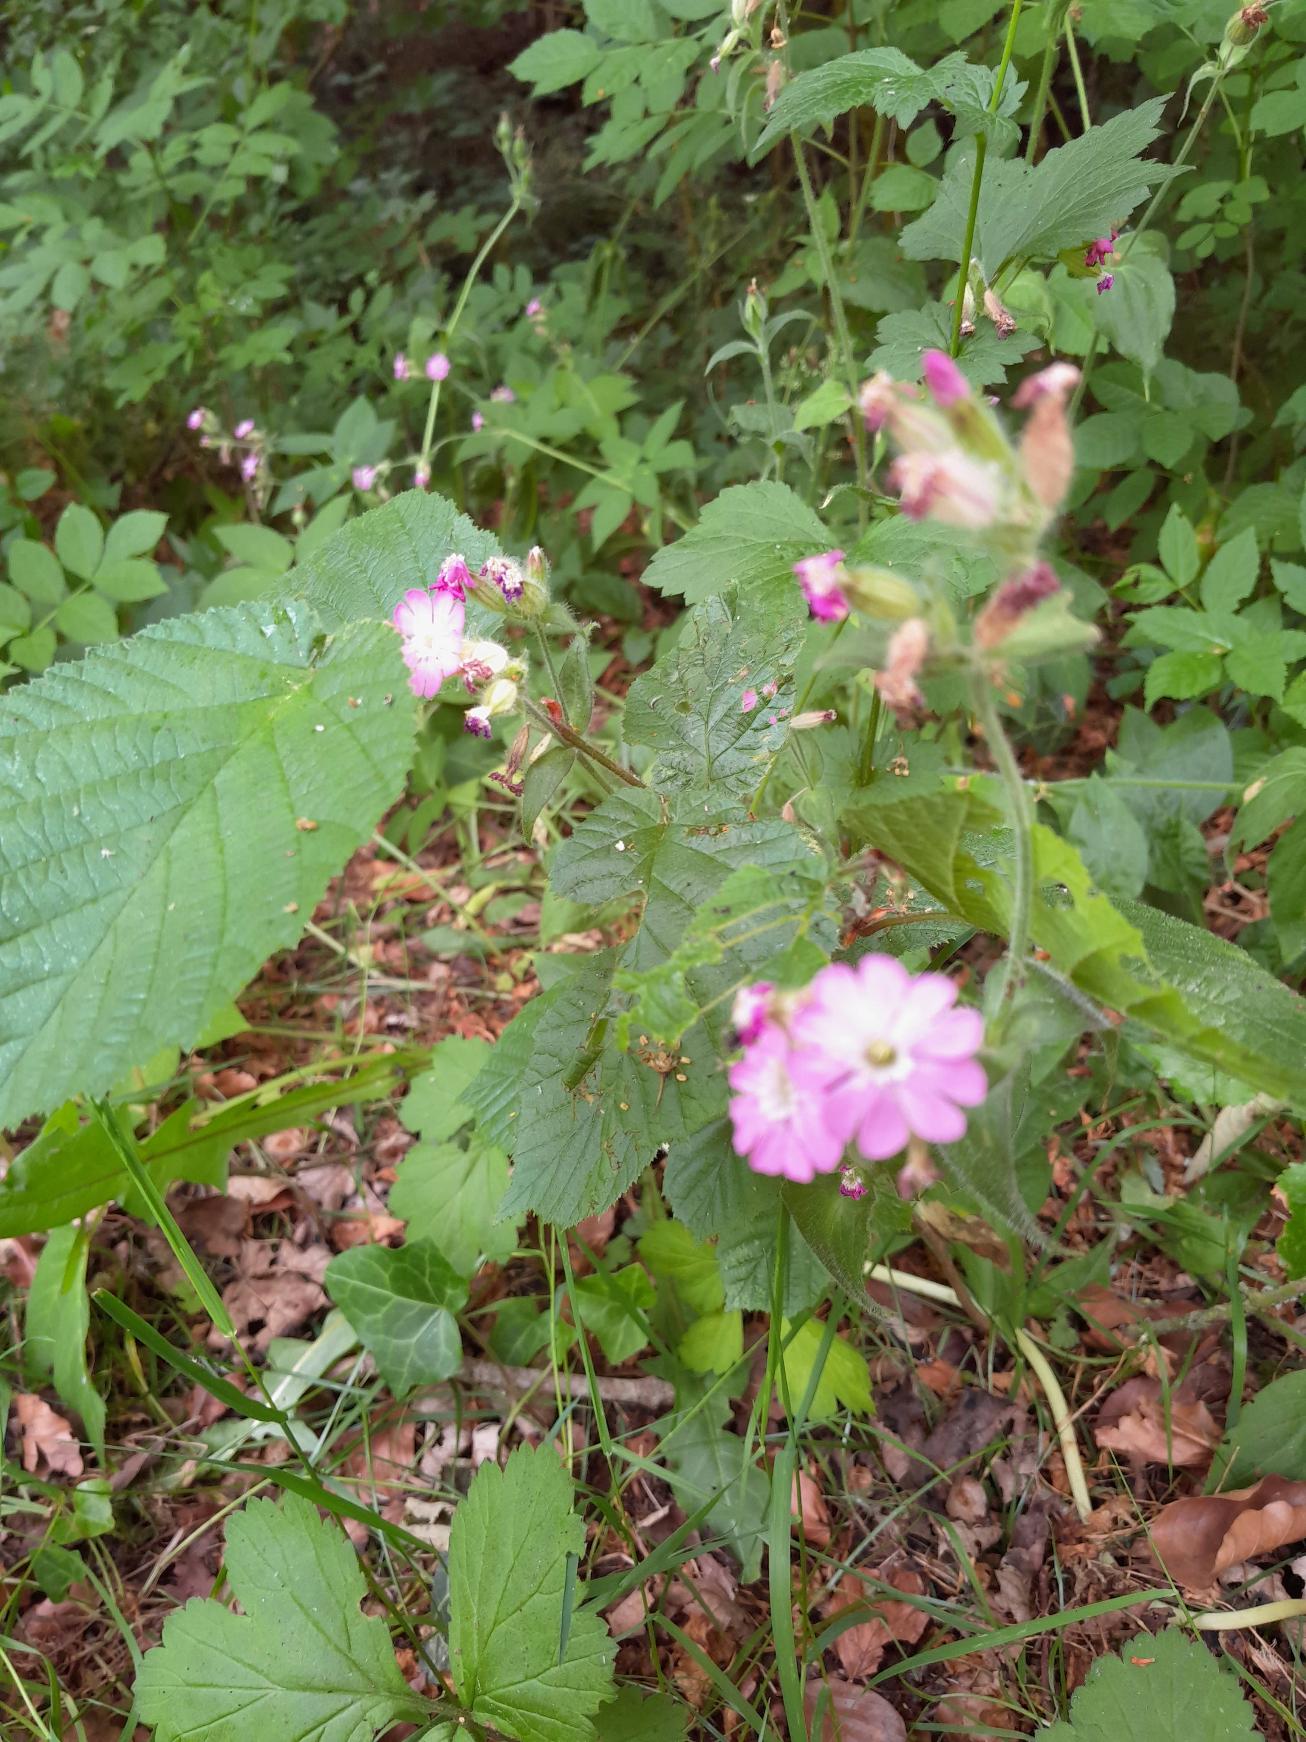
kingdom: Plantae
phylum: Tracheophyta
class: Magnoliopsida
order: Caryophyllales
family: Caryophyllaceae
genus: Silene
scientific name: Silene dioica
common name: Dagpragtstjerne
